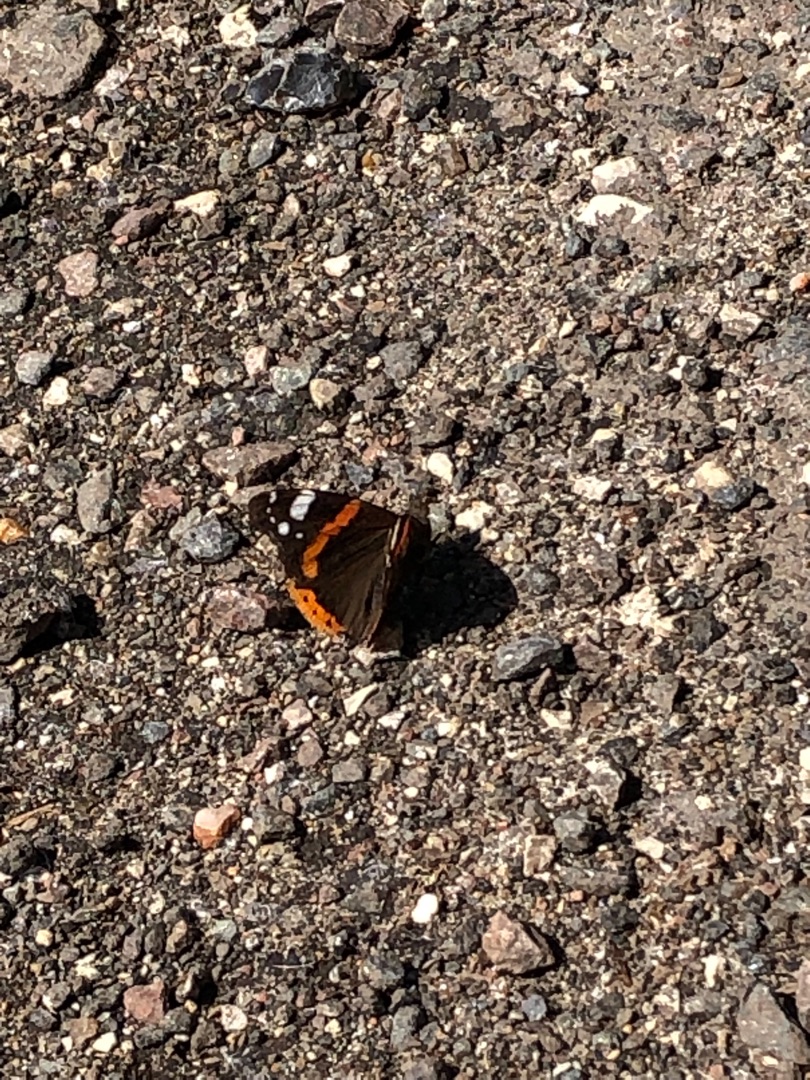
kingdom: Animalia
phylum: Arthropoda
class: Insecta
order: Lepidoptera
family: Nymphalidae
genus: Vanessa
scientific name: Vanessa atalanta
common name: Admiral
